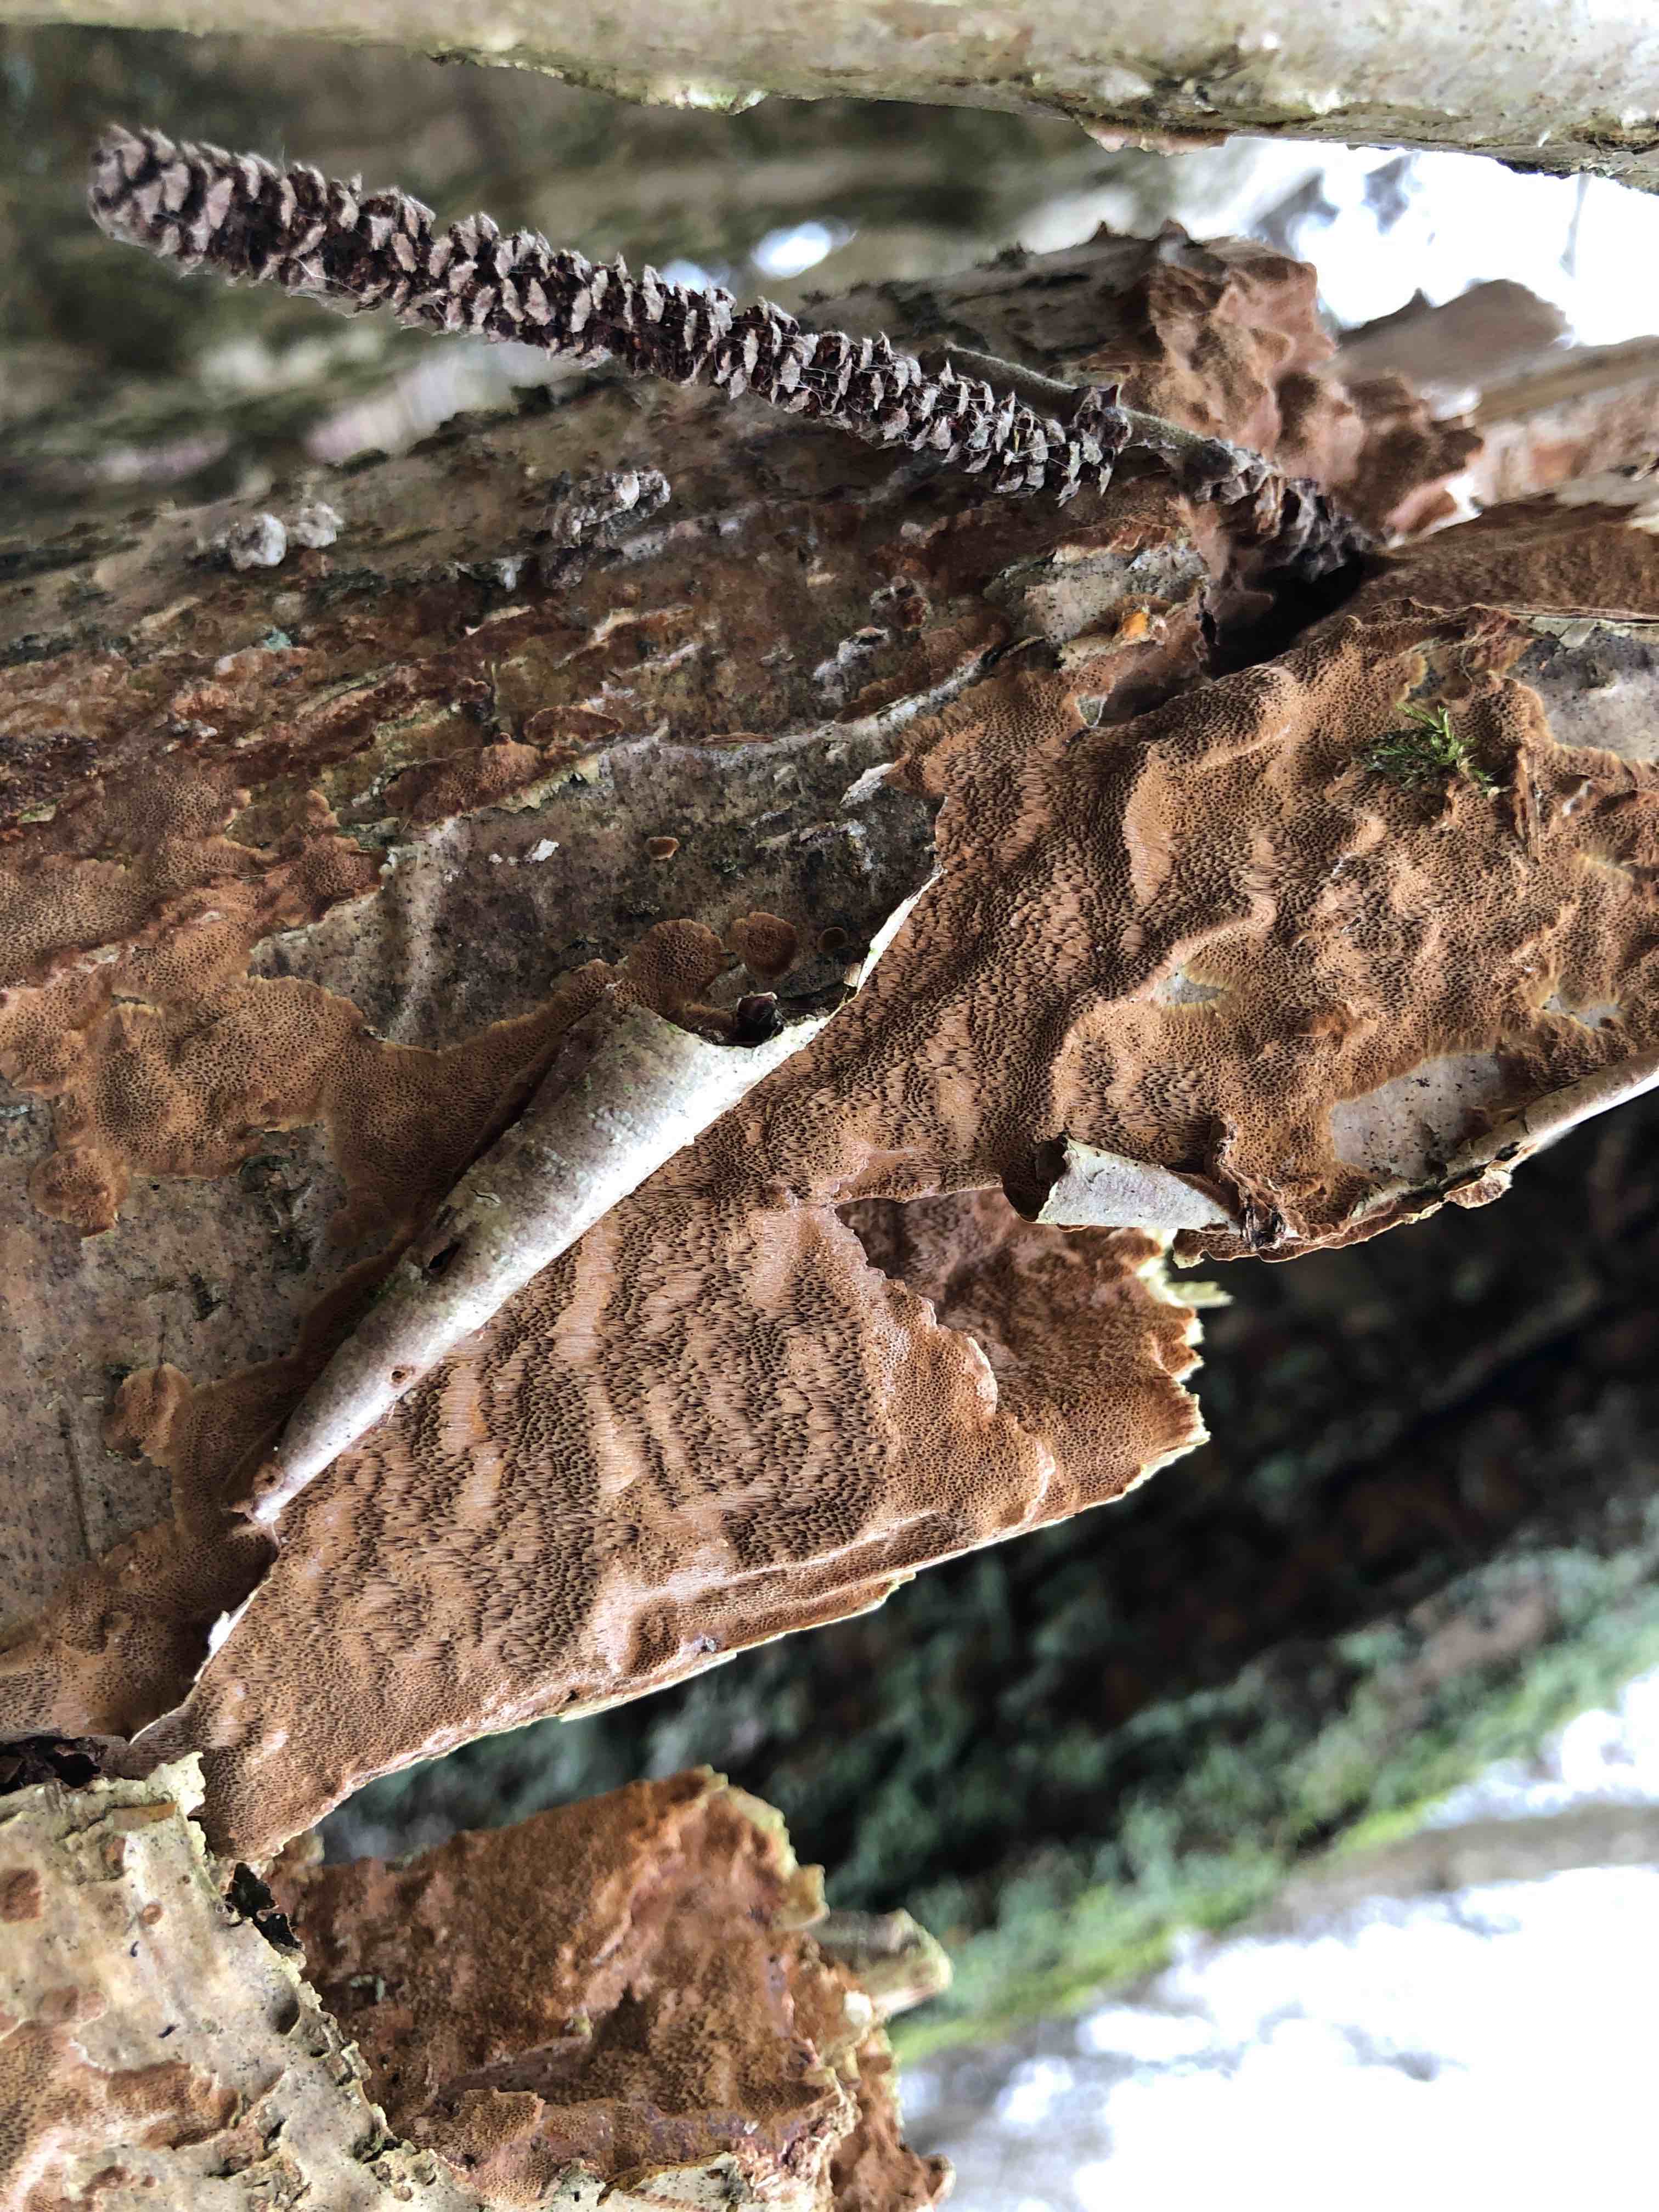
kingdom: Fungi
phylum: Basidiomycota
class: Agaricomycetes
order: Hymenochaetales
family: Hymenochaetaceae
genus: Fuscoporia
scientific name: Fuscoporia ferrea
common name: skorpe-ildporesvamp
